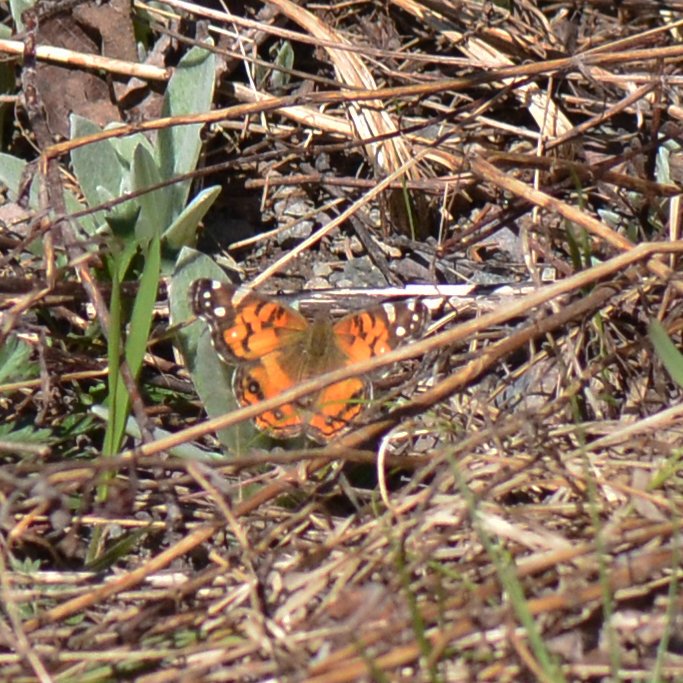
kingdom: Animalia
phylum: Arthropoda
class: Insecta
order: Lepidoptera
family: Nymphalidae
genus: Vanessa
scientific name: Vanessa virginiensis
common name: American Lady
